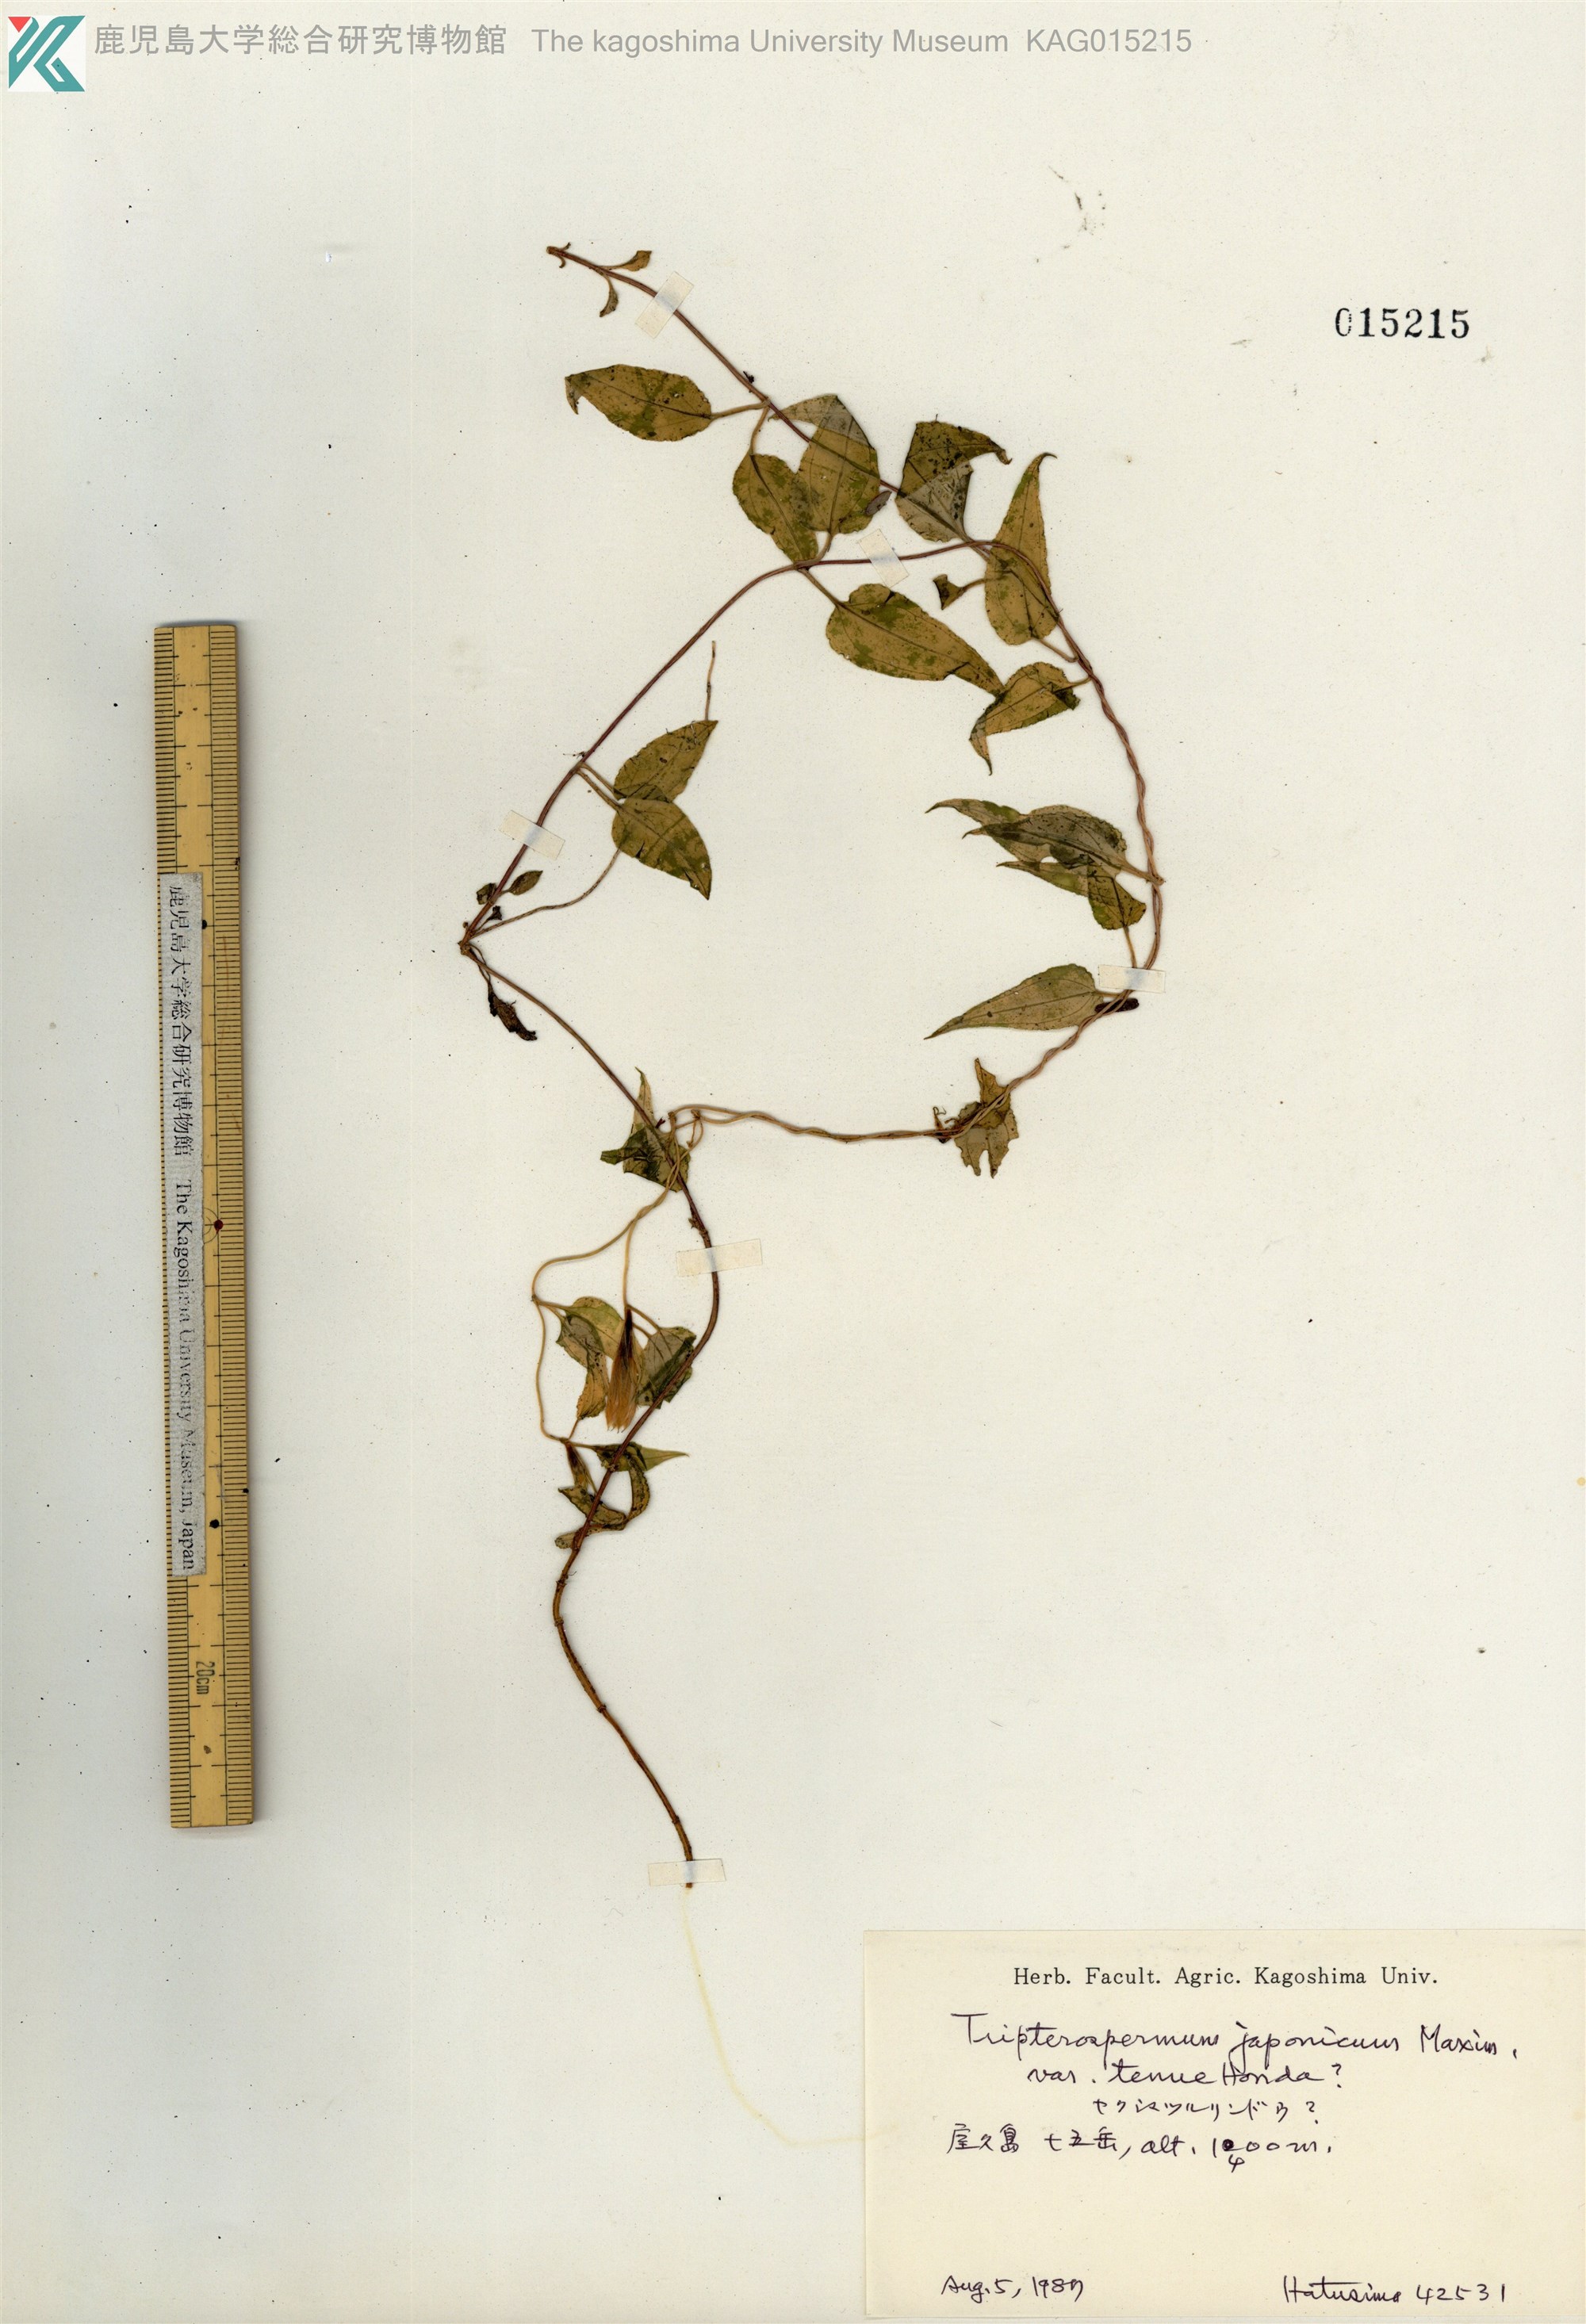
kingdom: Plantae
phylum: Tracheophyta
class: Magnoliopsida
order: Gentianales
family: Gentianaceae
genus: Tripterospermum
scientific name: Tripterospermum distylum
